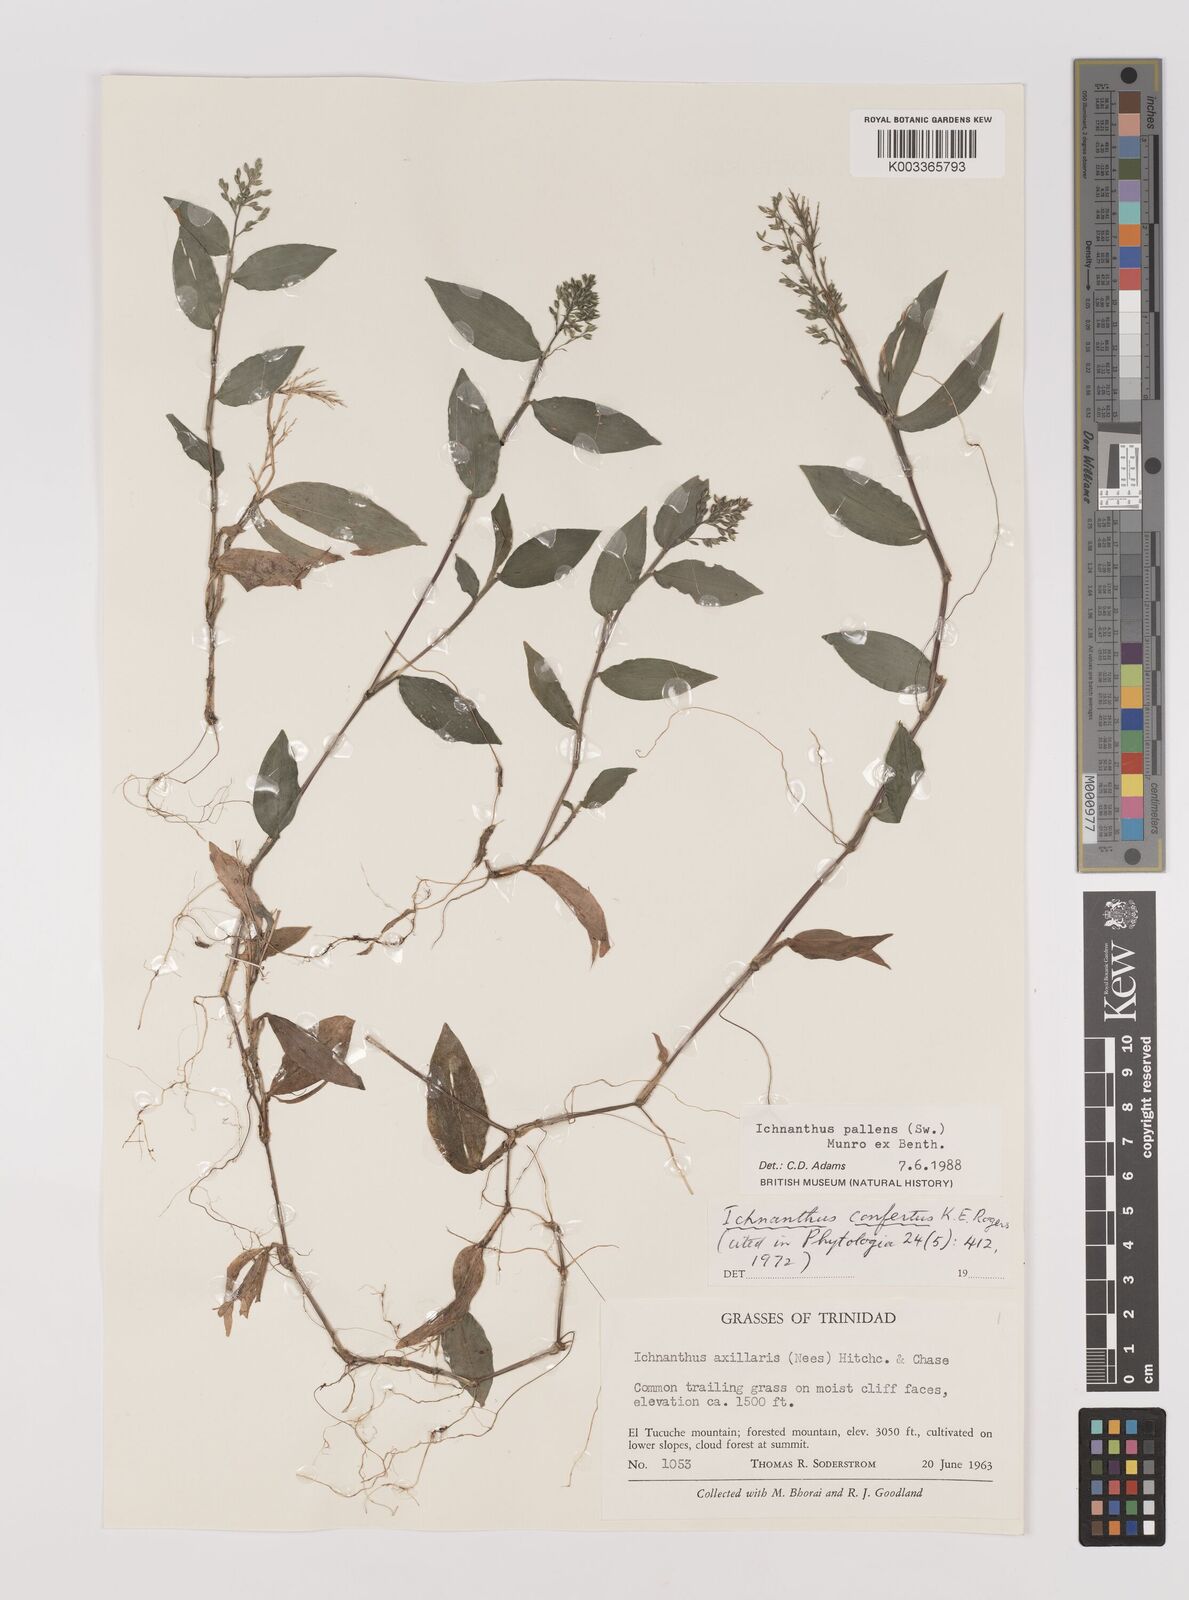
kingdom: Plantae
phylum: Tracheophyta
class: Liliopsida
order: Poales
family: Poaceae
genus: Ichnanthus
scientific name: Ichnanthus pallens
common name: Water grass
